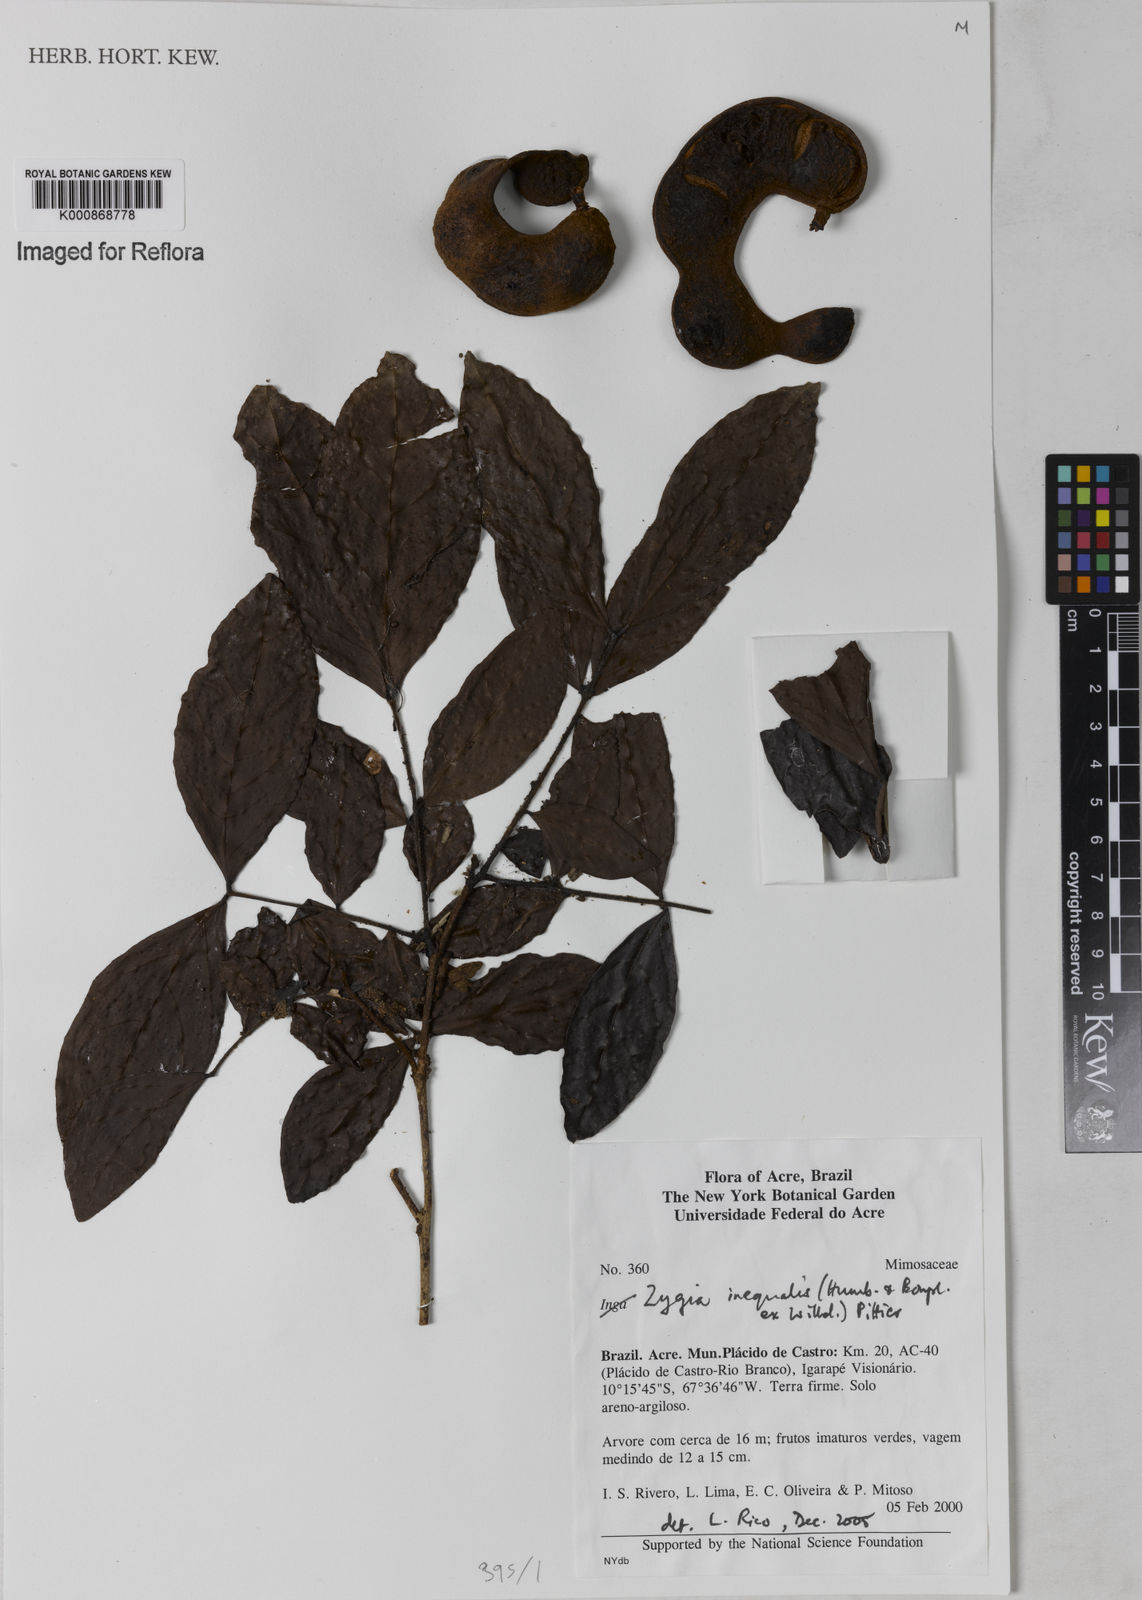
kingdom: Plantae
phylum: Tracheophyta
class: Magnoliopsida
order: Fabales
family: Fabaceae
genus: Zygia
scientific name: Zygia inaequalis
